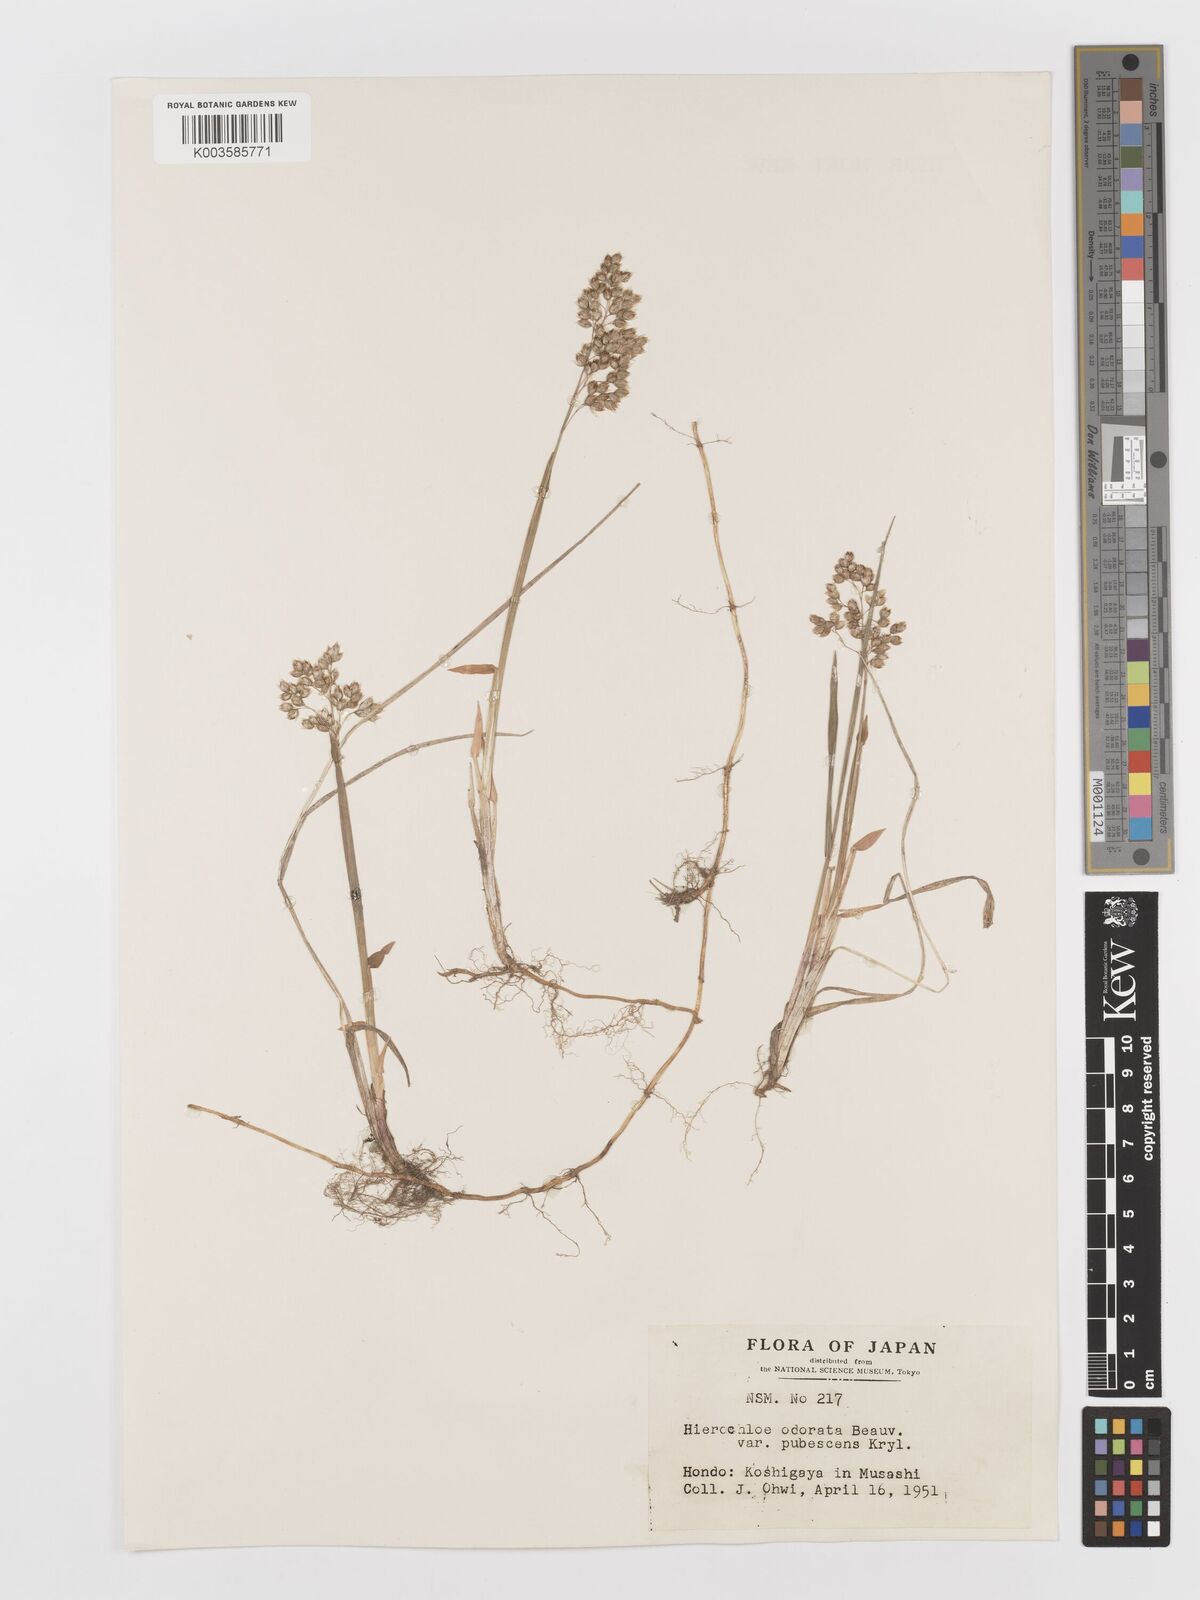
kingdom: Plantae
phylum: Tracheophyta
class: Liliopsida
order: Poales
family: Poaceae
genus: Anthoxanthum
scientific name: Anthoxanthum nitens
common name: Holy grass
